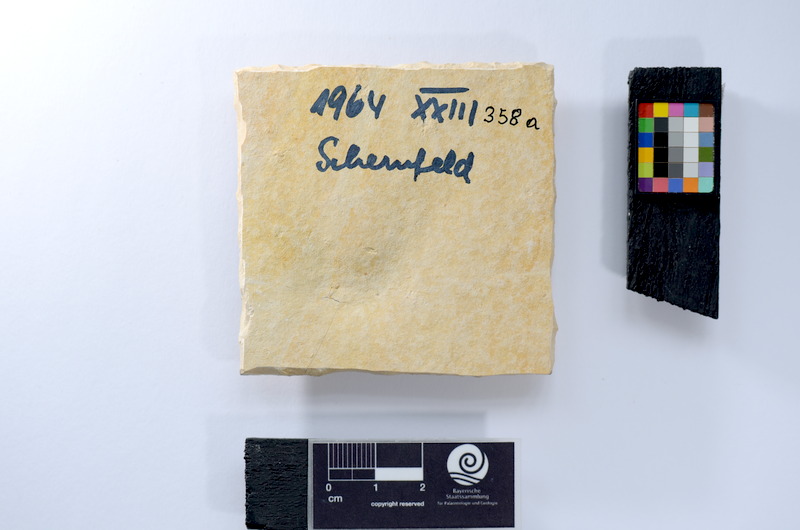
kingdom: Animalia
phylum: Chordata
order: Salmoniformes
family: Orthogonikleithridae
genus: Leptolepides
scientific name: Leptolepides
